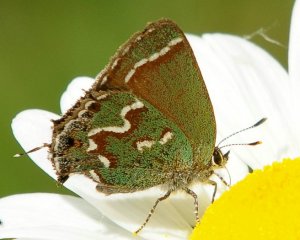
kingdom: Animalia
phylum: Arthropoda
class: Insecta
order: Lepidoptera
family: Lycaenidae
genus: Mitoura
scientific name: Mitoura gryneus
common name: Juniper Hairstreak
